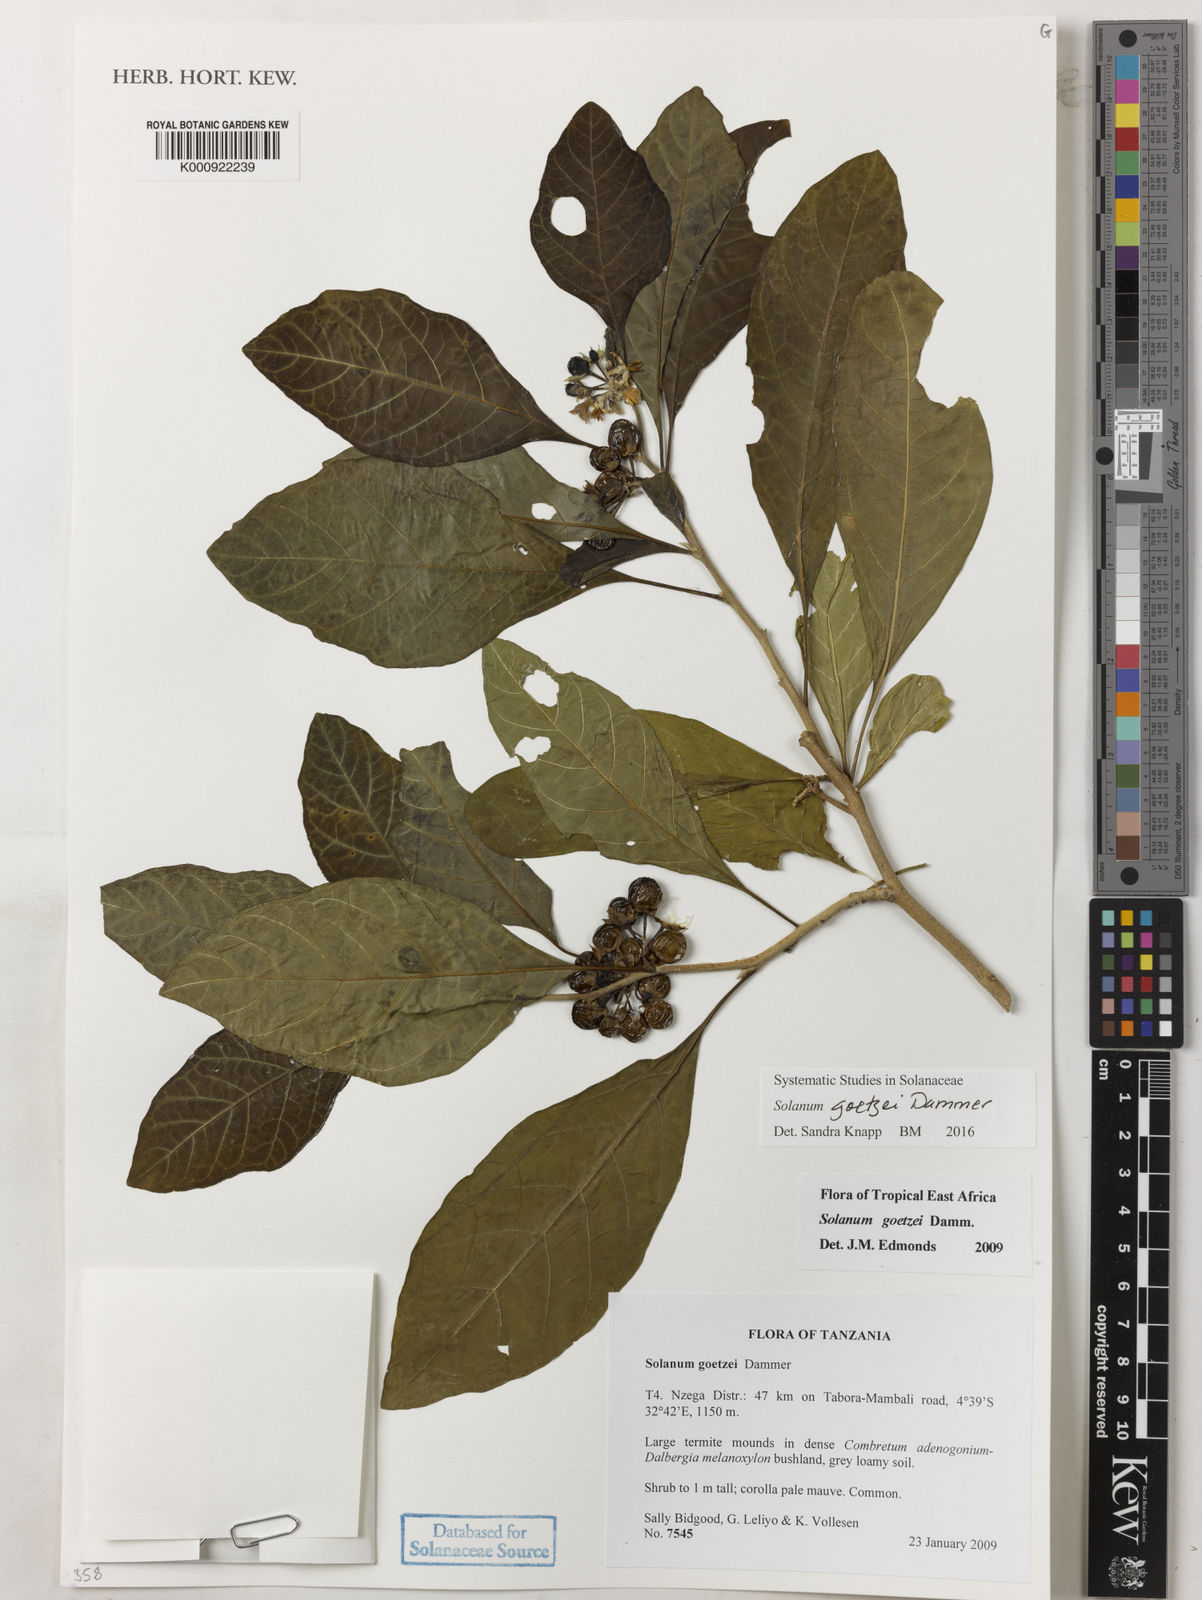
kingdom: Plantae
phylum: Tracheophyta
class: Magnoliopsida
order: Solanales
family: Solanaceae
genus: Solanum
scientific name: Solanum goetzei
